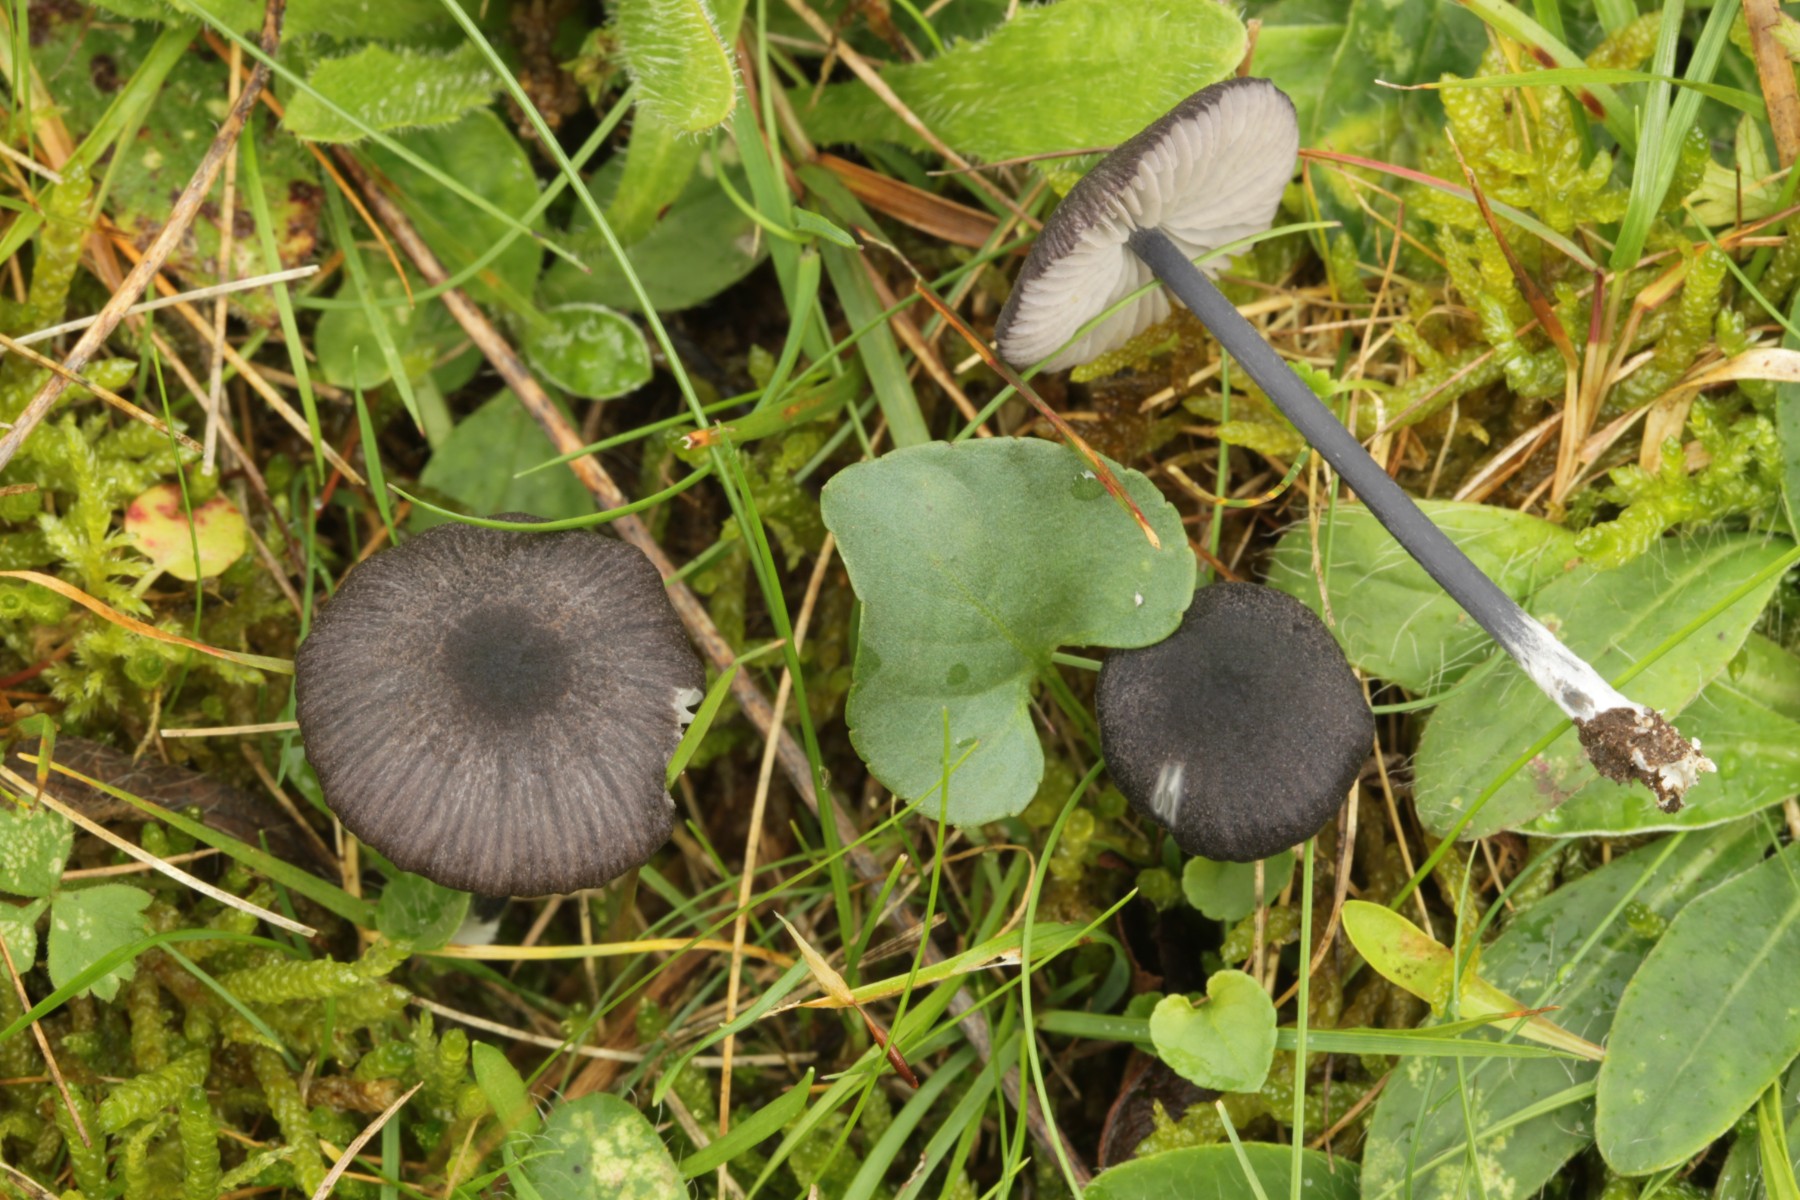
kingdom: Fungi
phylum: Basidiomycota
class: Agaricomycetes
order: Agaricales
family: Entolomataceae
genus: Entoloma
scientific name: Entoloma atrocoeruleum
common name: sortblå rødblad
